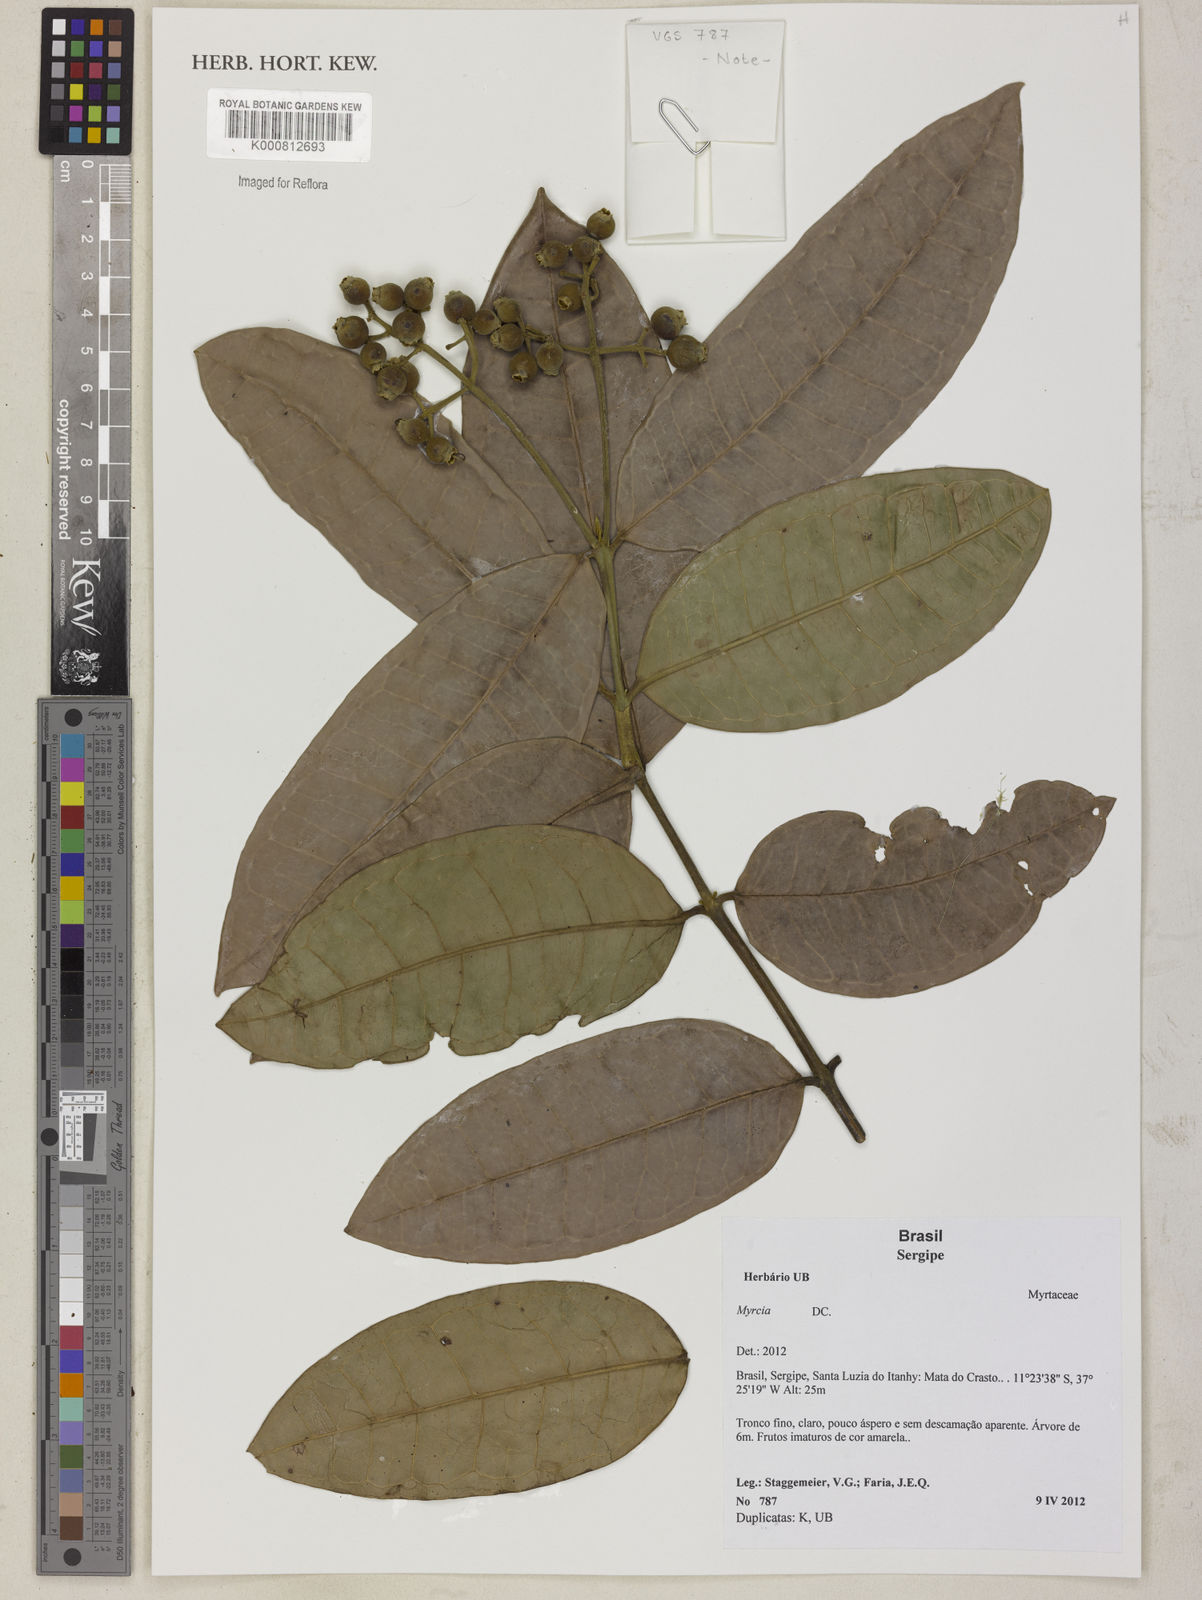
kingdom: Plantae
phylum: Tracheophyta
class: Magnoliopsida
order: Myrtales
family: Myrtaceae
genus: Myrcia
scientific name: Myrcia rosangelae
